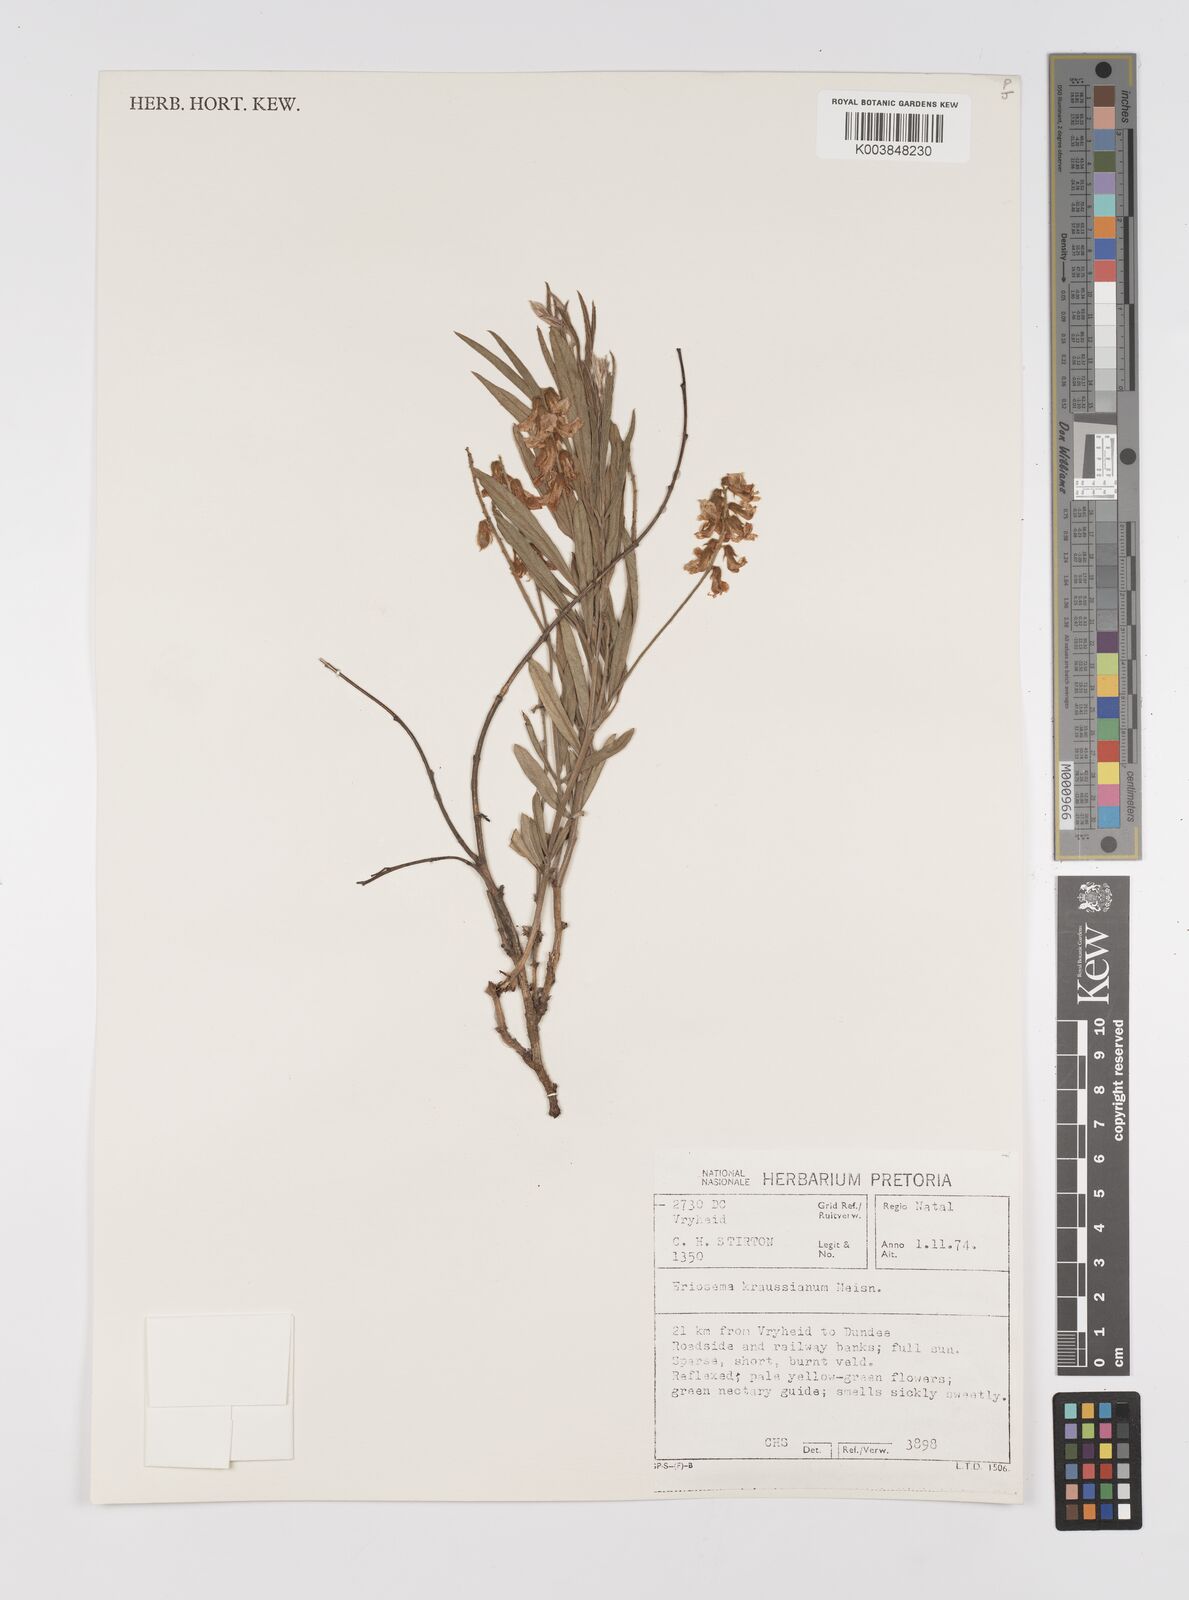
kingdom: Plantae
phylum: Tracheophyta
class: Magnoliopsida
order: Fabales
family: Fabaceae
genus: Eriosema
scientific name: Eriosema kraussianum
